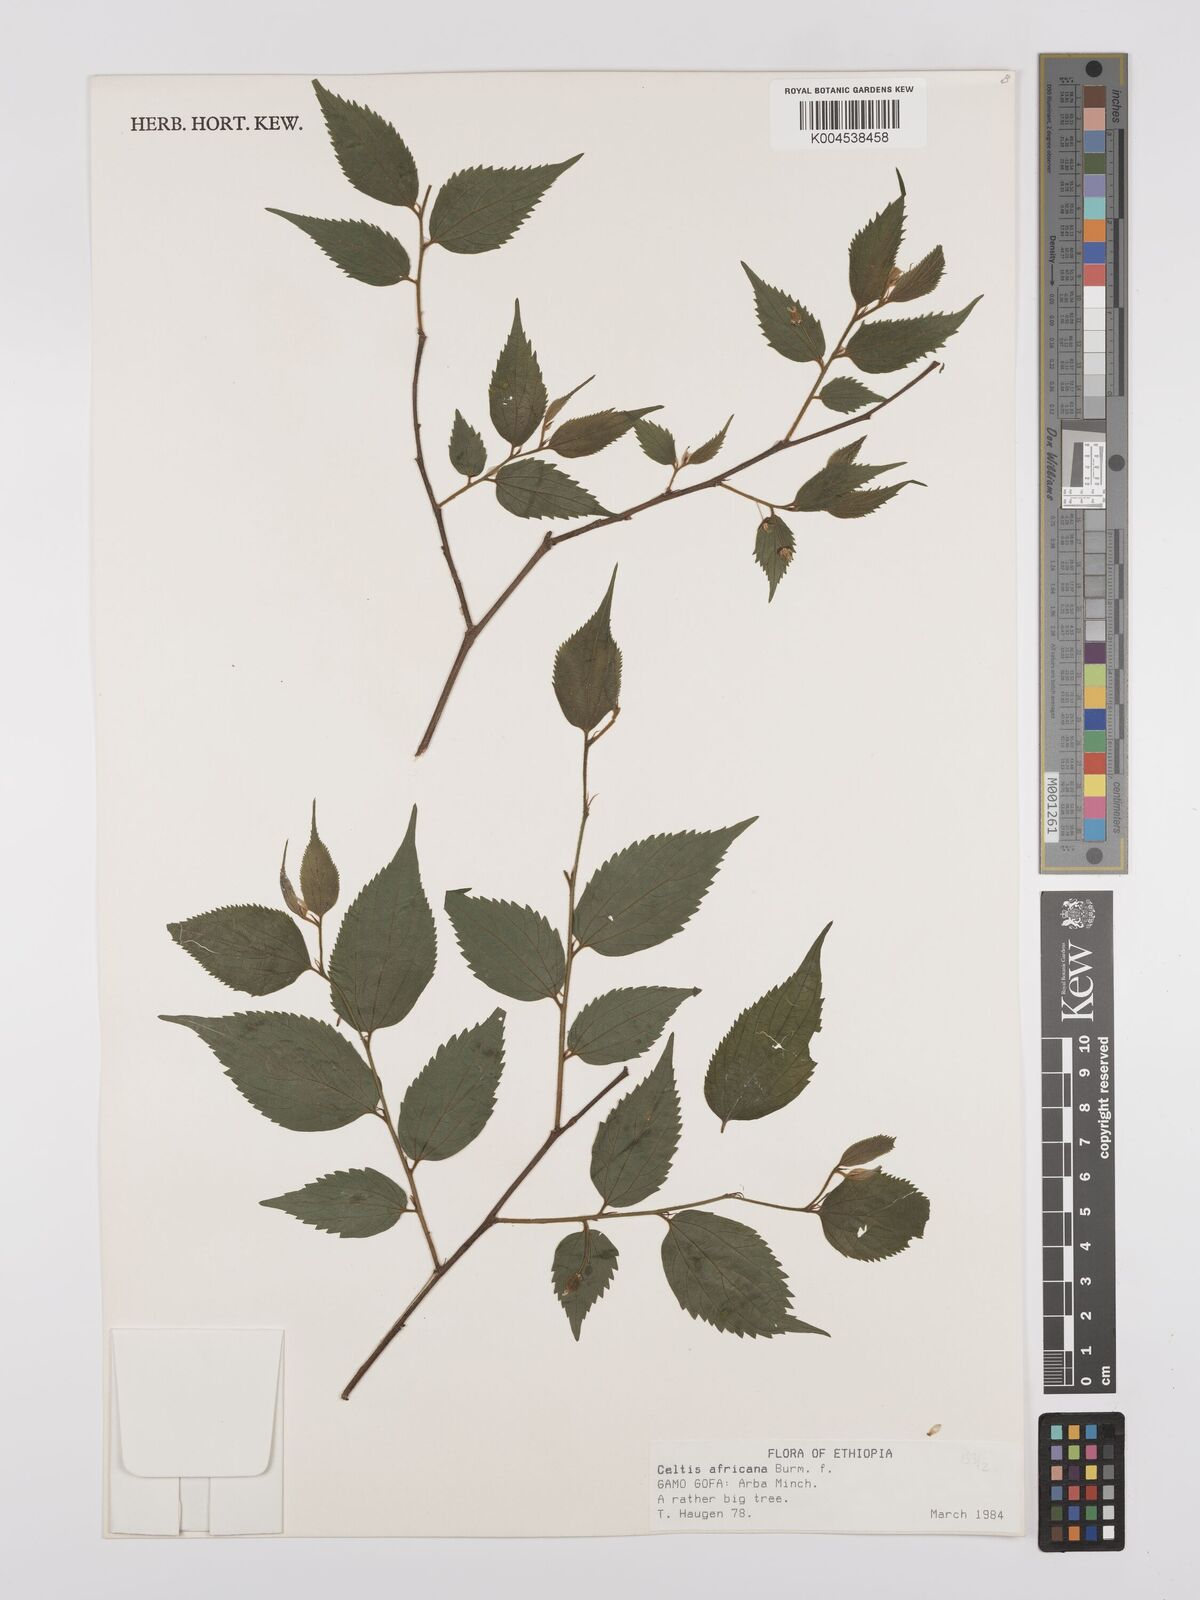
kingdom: Plantae
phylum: Tracheophyta
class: Magnoliopsida
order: Rosales
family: Cannabaceae
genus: Celtis
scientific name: Celtis africana
